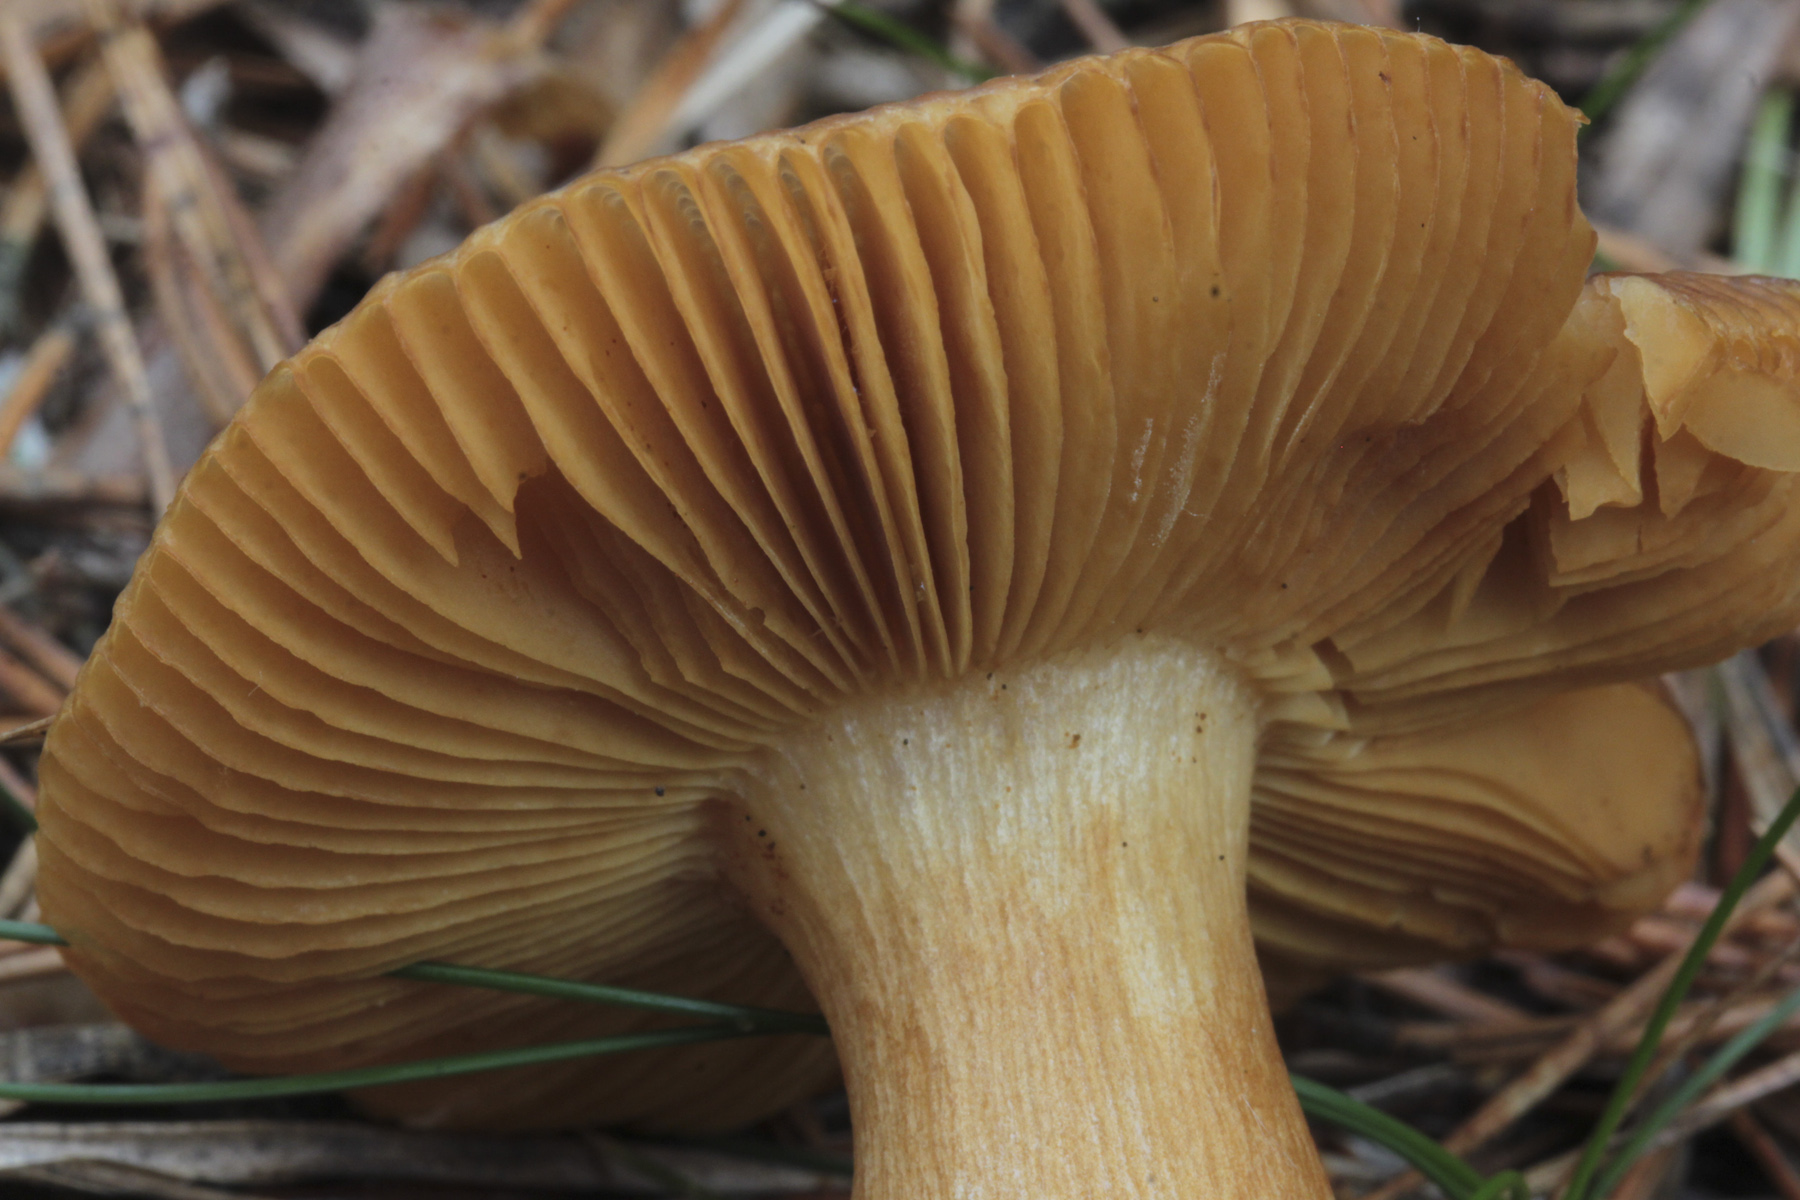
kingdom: Fungi
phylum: Basidiomycota
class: Agaricomycetes
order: Russulales
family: Russulaceae
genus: Russula
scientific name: Russula puellaris
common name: Yellowing brittlegill
